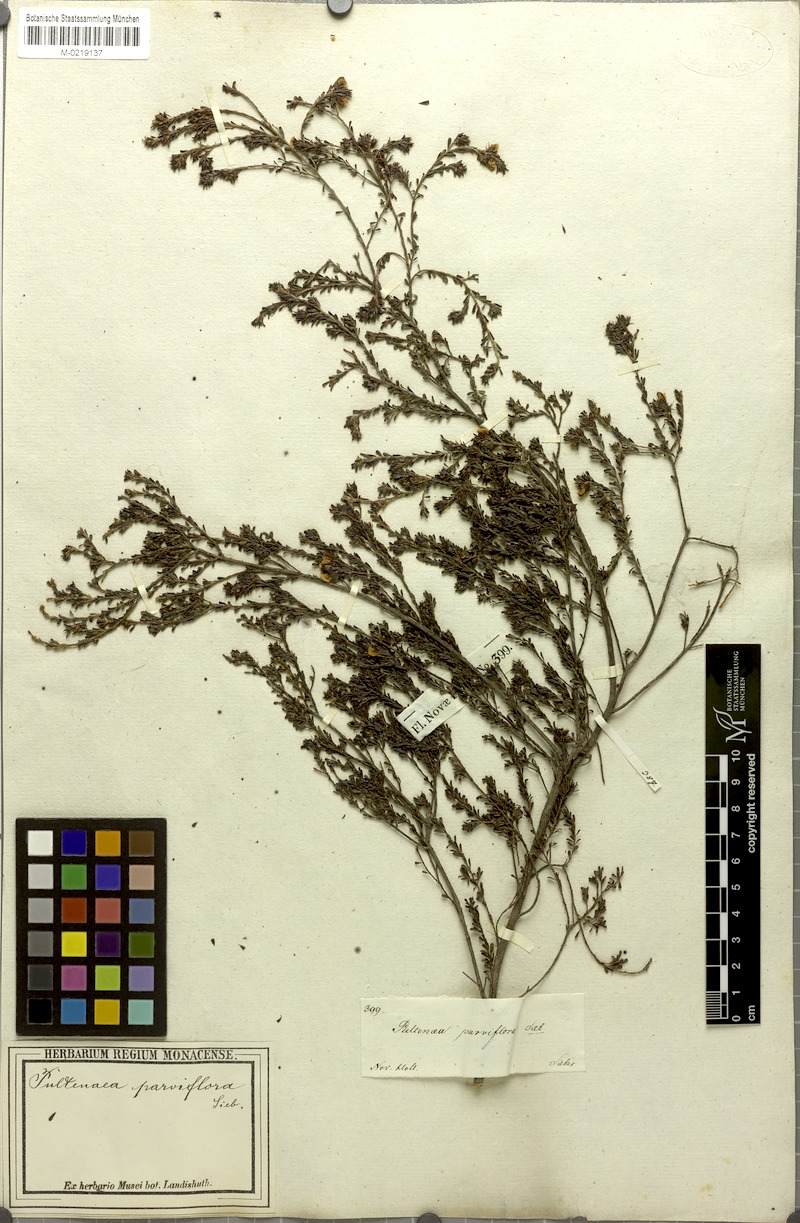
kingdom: Plantae
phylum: Tracheophyta
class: Magnoliopsida
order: Fabales
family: Fabaceae
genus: Pultenaea
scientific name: Pultenaea parviflora
